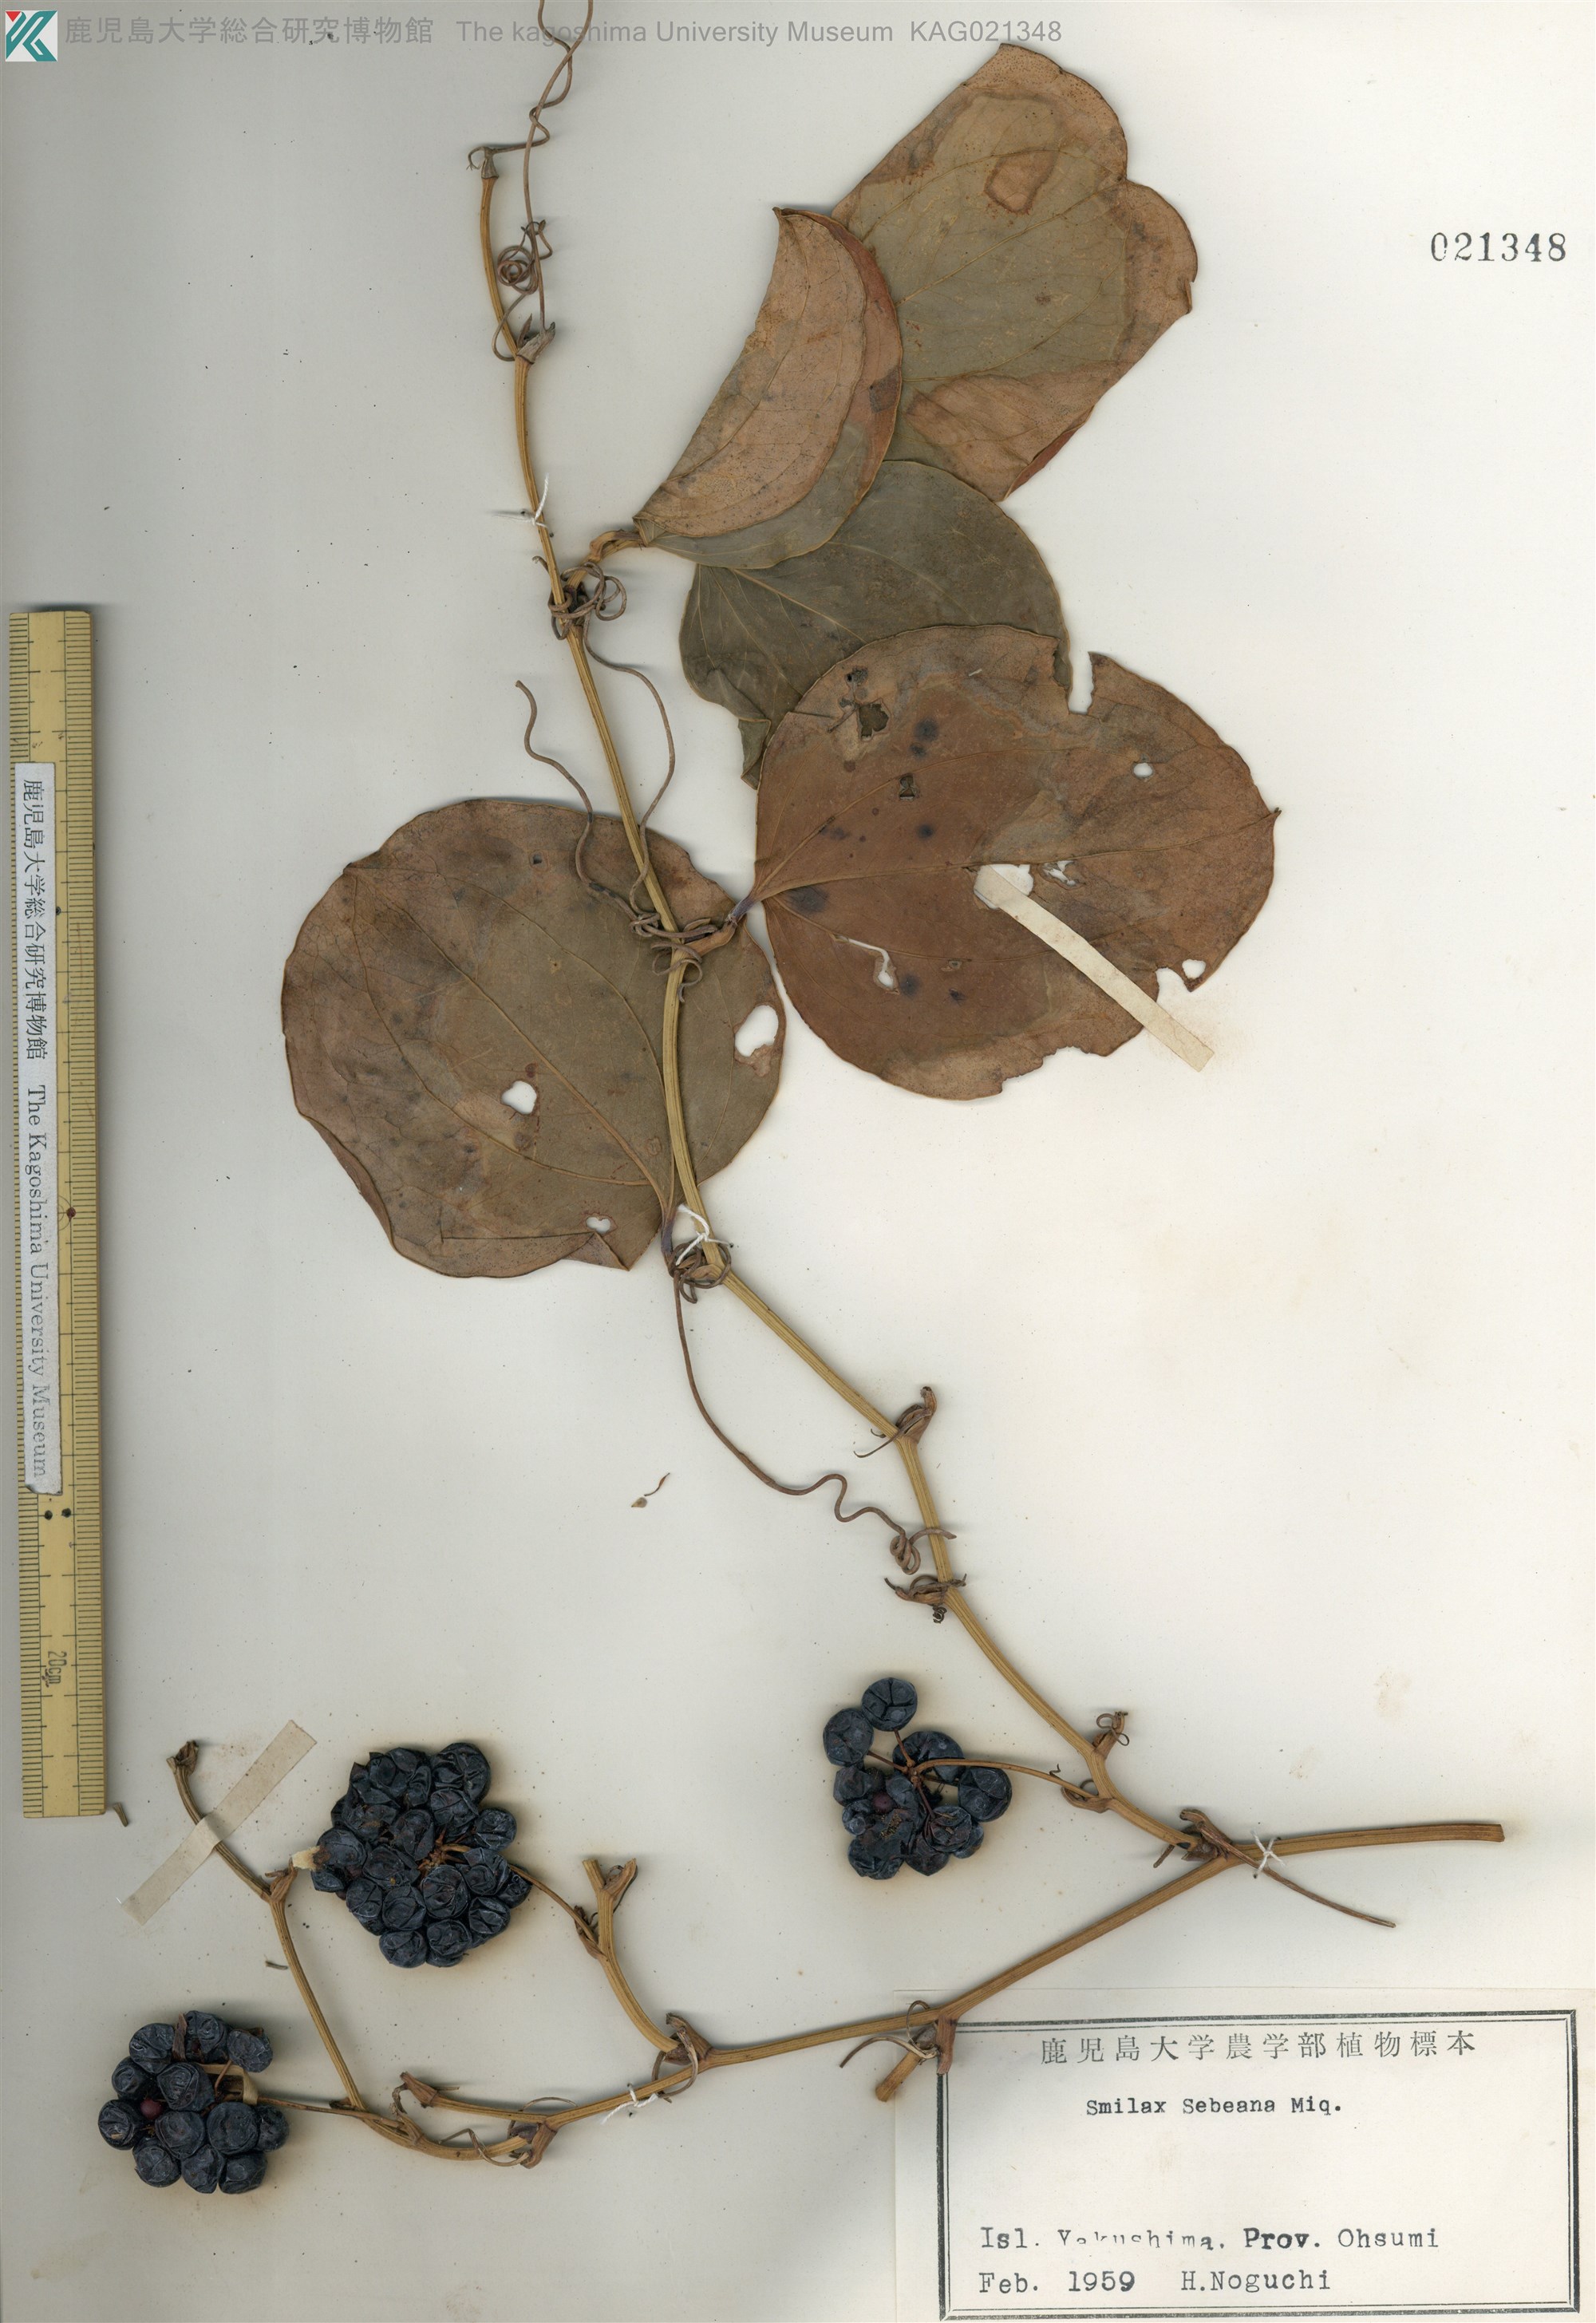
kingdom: Plantae
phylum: Tracheophyta
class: Liliopsida
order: Liliales
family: Smilacaceae
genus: Smilax
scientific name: Smilax sebeana
